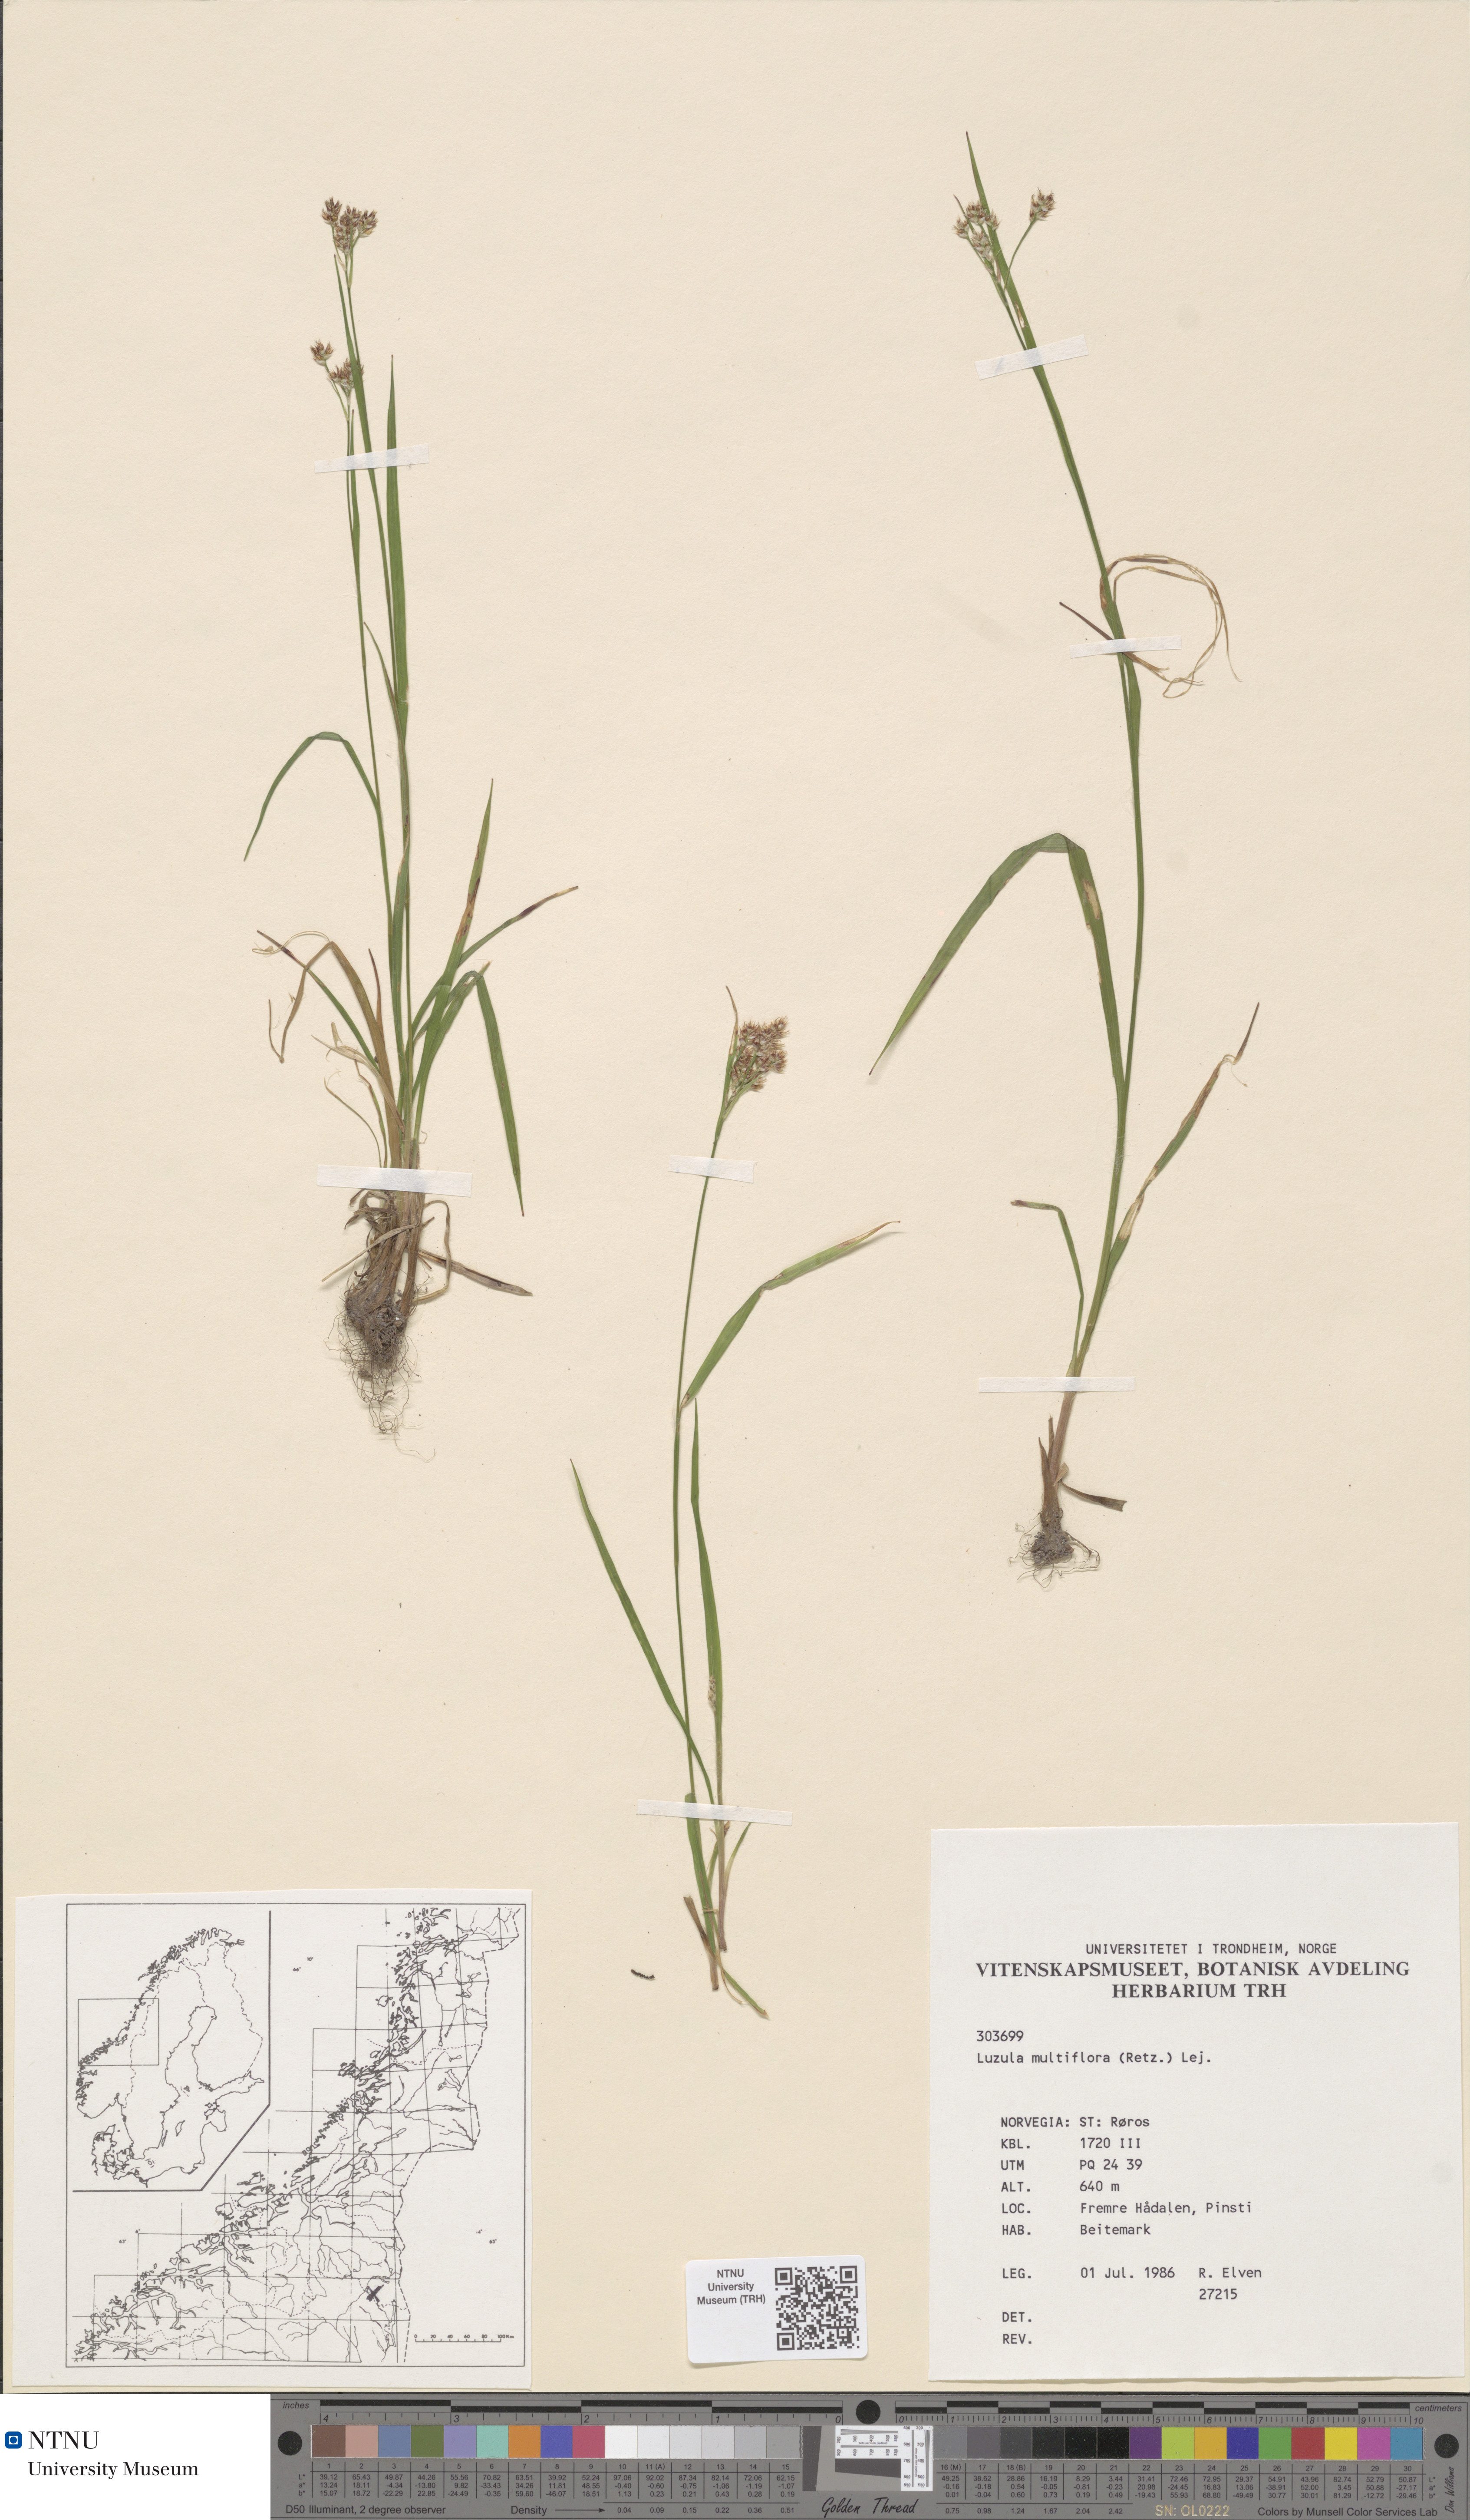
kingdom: Plantae
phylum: Tracheophyta
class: Liliopsida
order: Poales
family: Juncaceae
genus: Luzula
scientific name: Luzula multiflora
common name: Heath wood-rush
